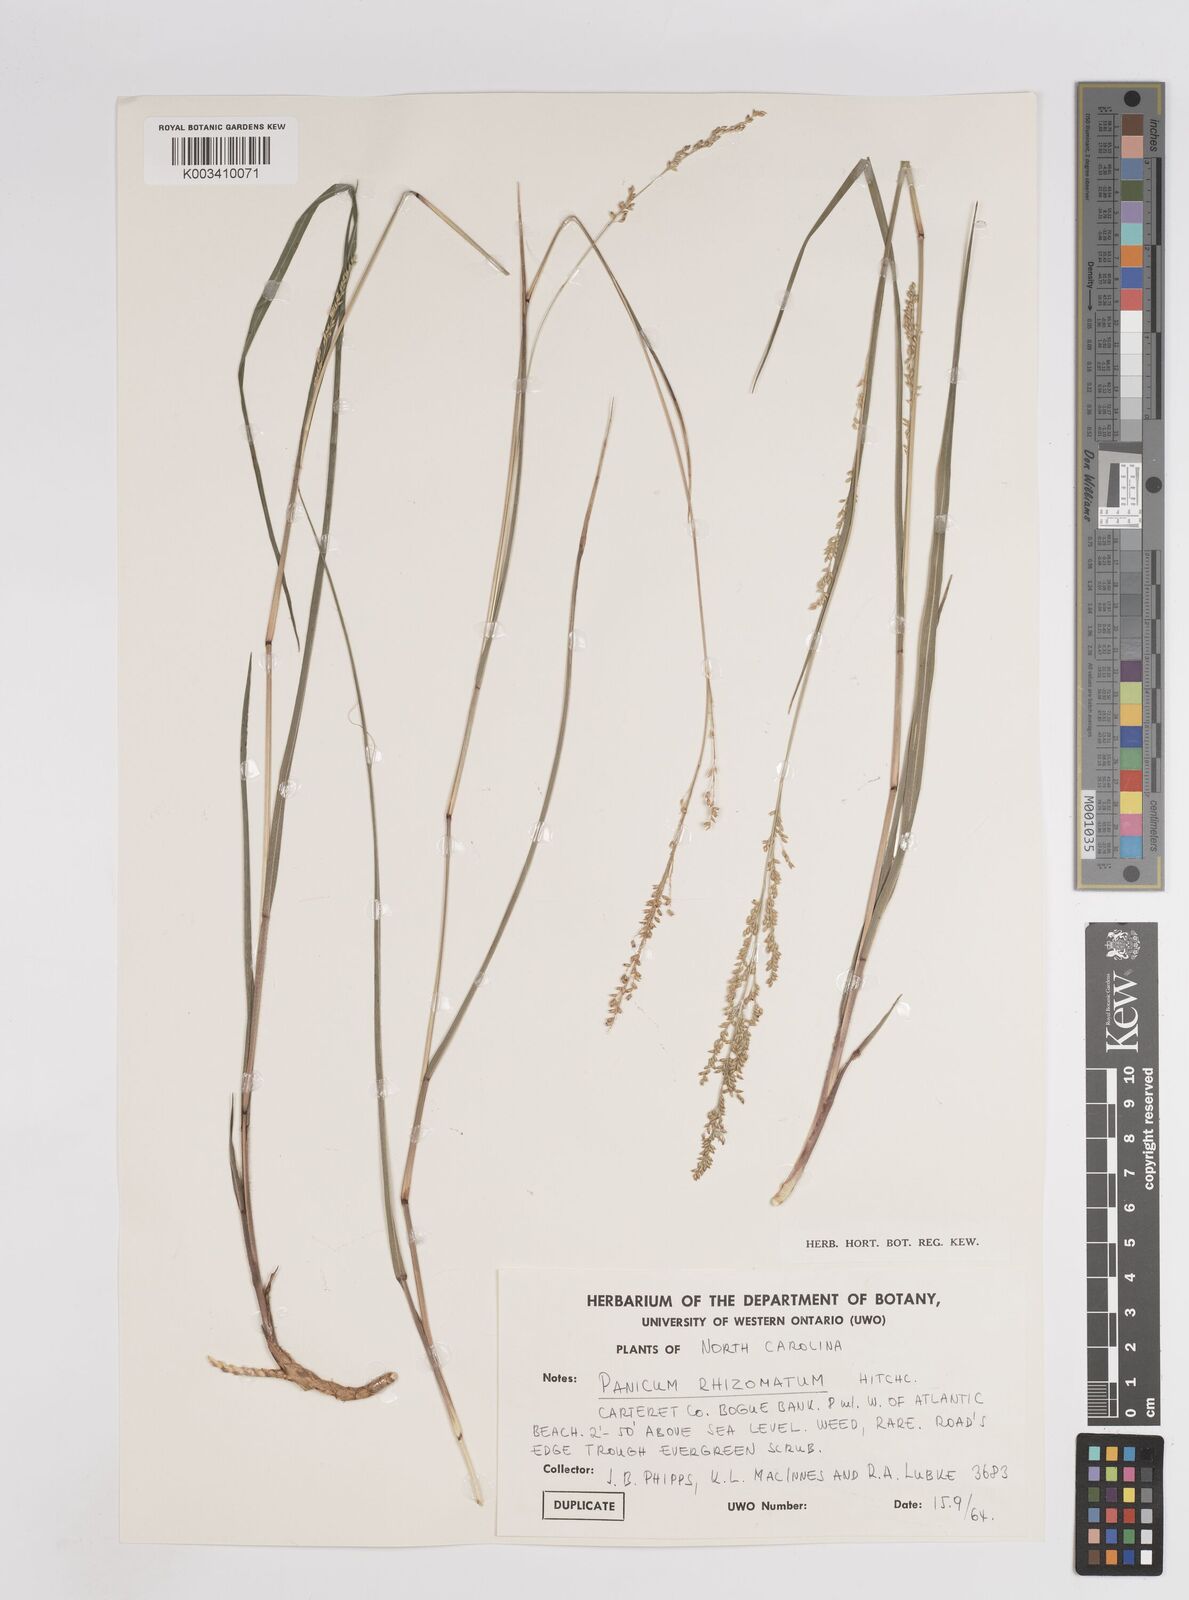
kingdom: Plantae
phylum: Tracheophyta
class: Liliopsida
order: Poales
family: Poaceae
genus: Coleataenia
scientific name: Coleataenia anceps
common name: Beaked panic grass
